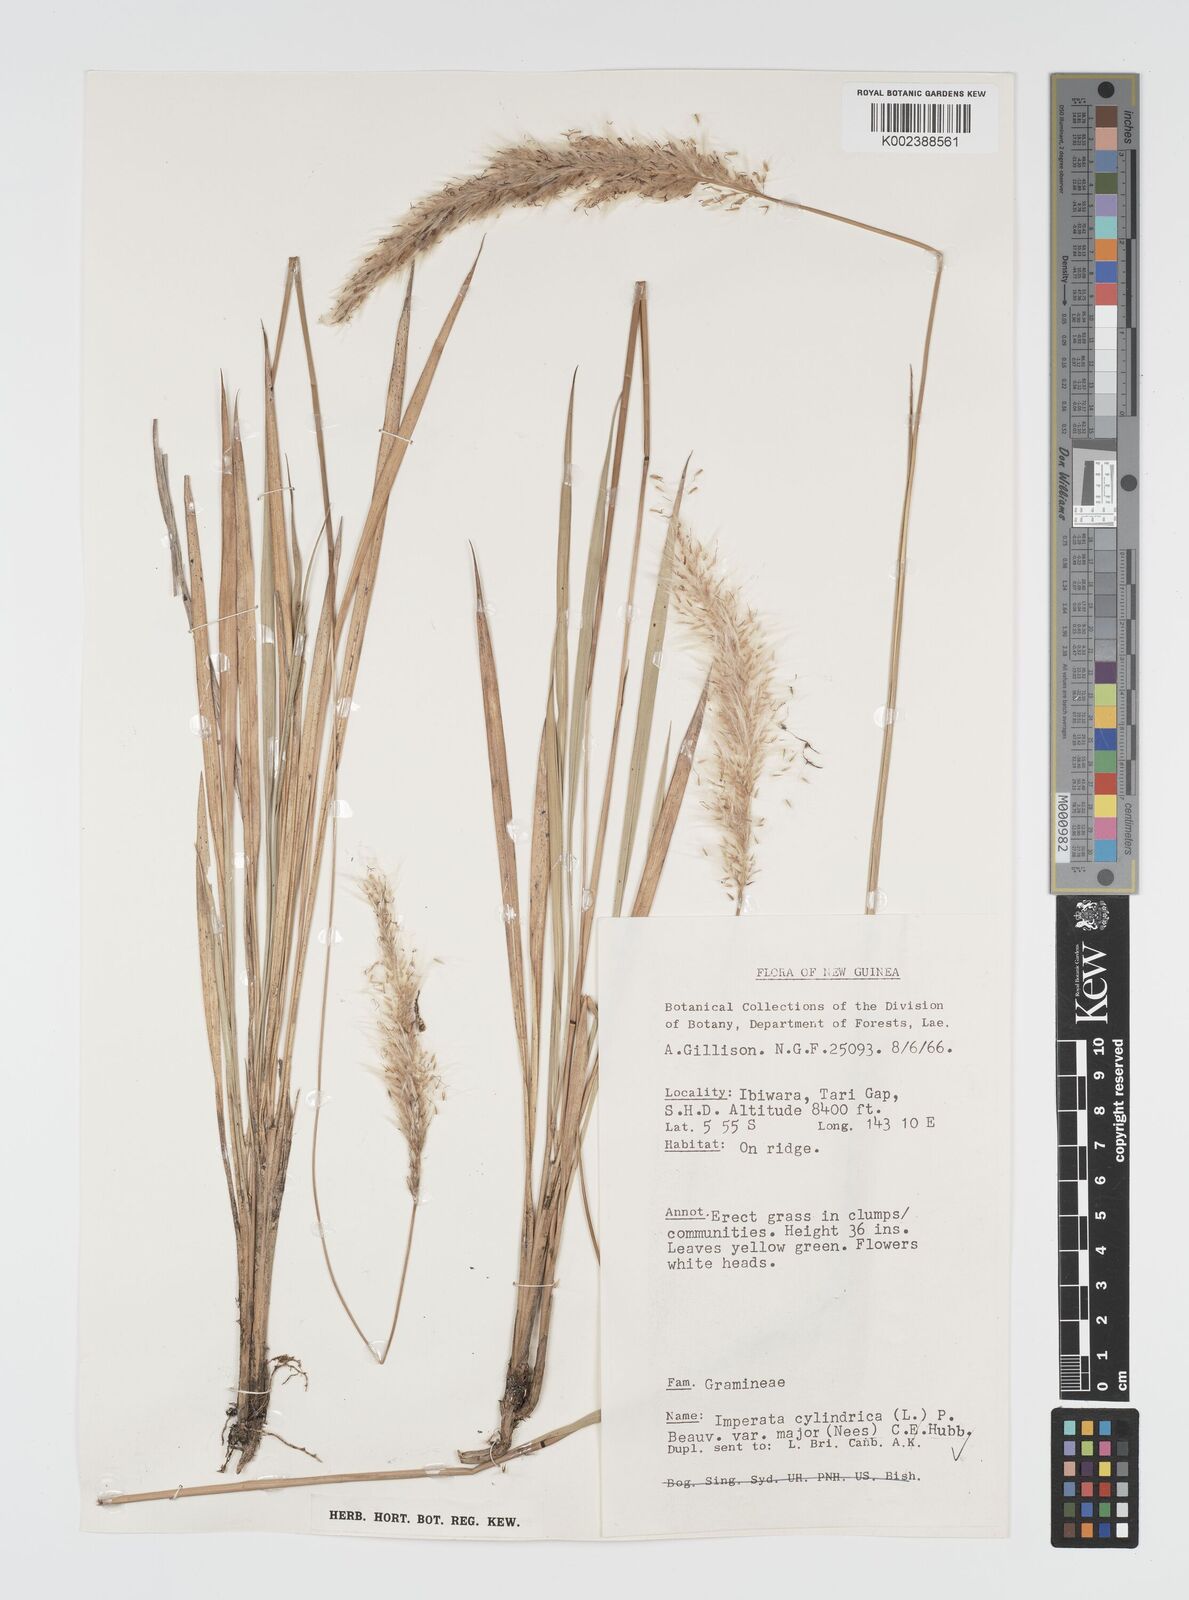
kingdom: Plantae
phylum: Tracheophyta
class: Liliopsida
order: Poales
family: Poaceae
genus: Imperata
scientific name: Imperata cylindrica
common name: Cogongrass
